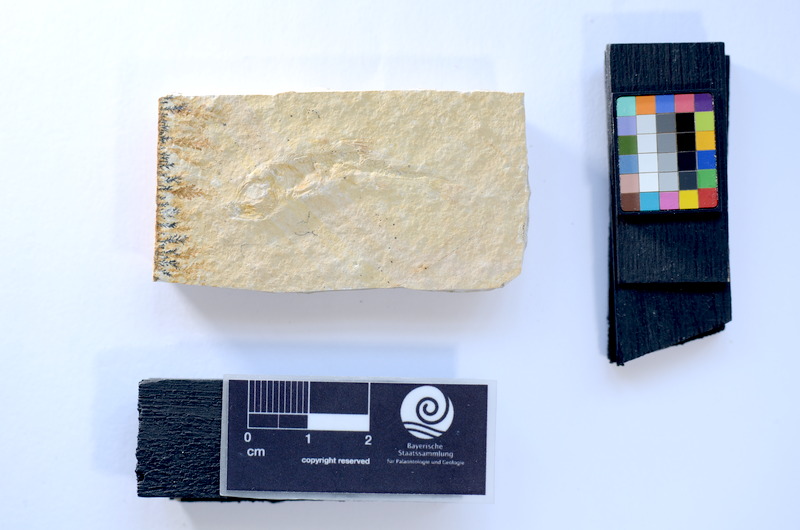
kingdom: Animalia
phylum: Chordata
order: Salmoniformes
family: Orthogonikleithridae
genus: Leptolepides
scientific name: Leptolepides
